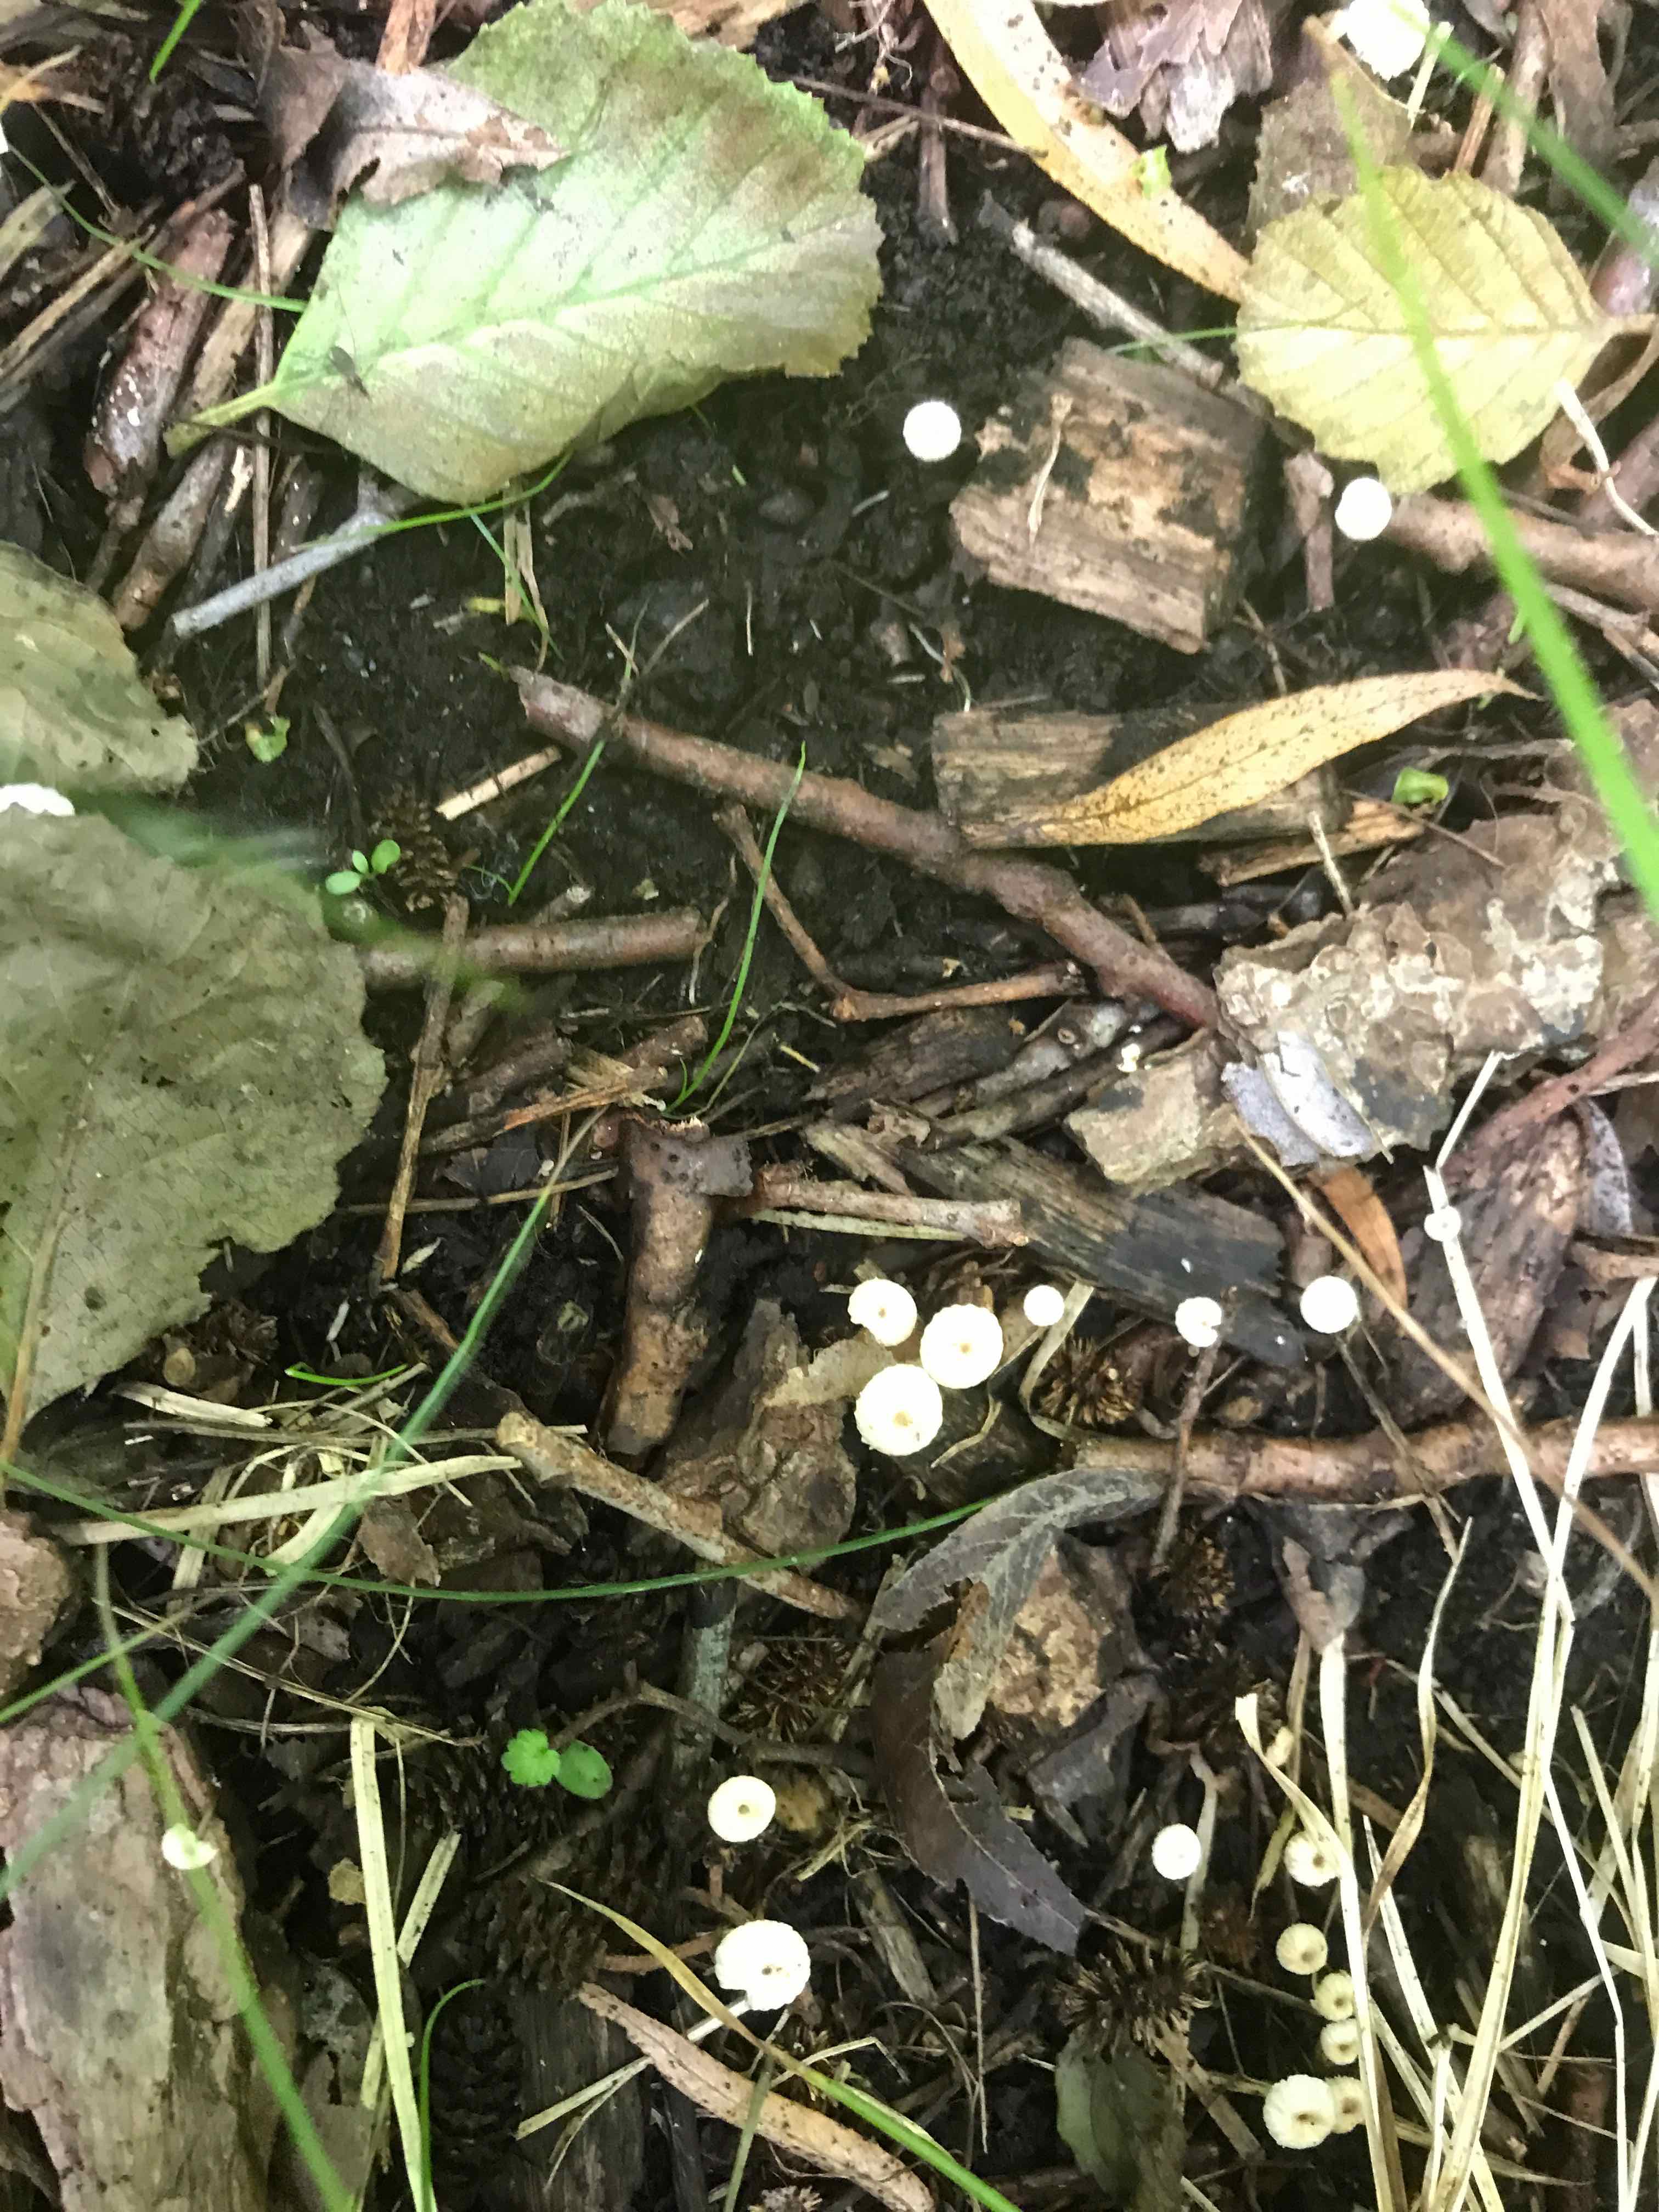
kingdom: Fungi
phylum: Basidiomycota
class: Agaricomycetes
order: Agaricales
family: Marasmiaceae
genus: Marasmius
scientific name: Marasmius rotula
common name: hjul-bruskhat
